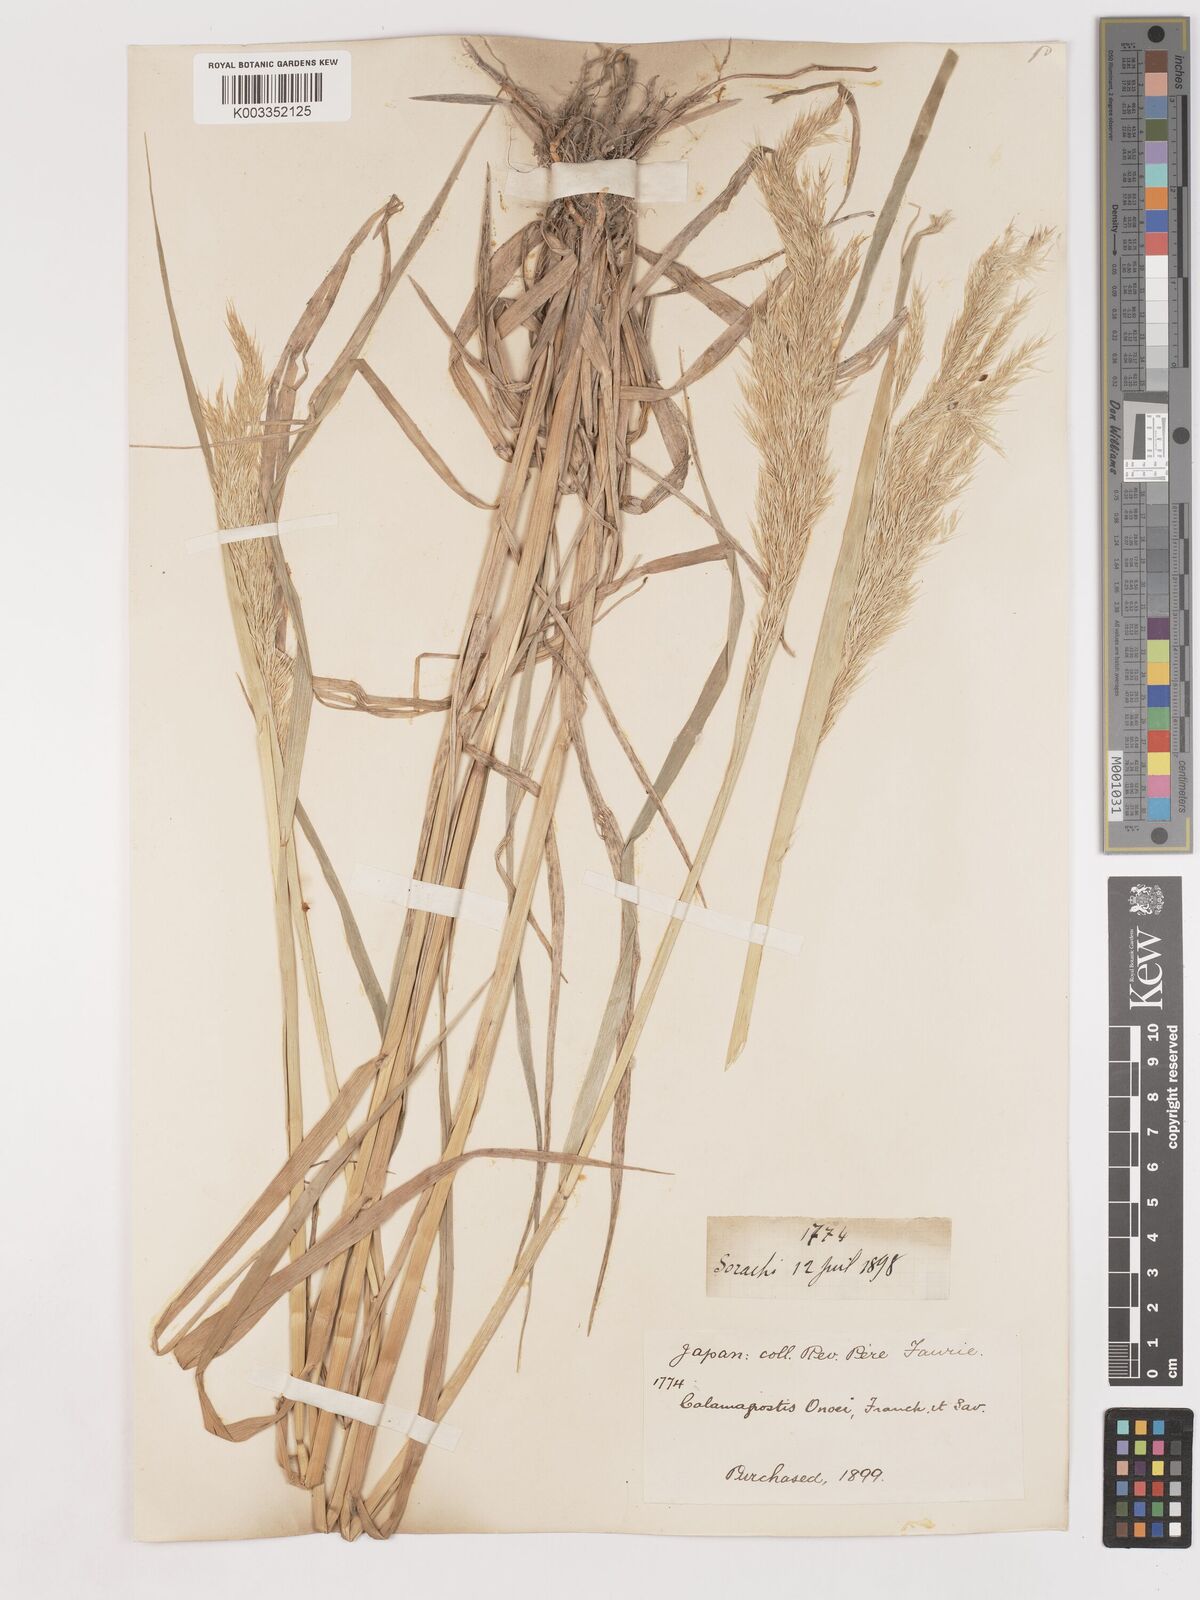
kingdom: Plantae
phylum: Tracheophyta
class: Liliopsida
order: Poales
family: Poaceae
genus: Calamagrostis
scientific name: Calamagrostis pseudophragmites
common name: Coastal small-reed
